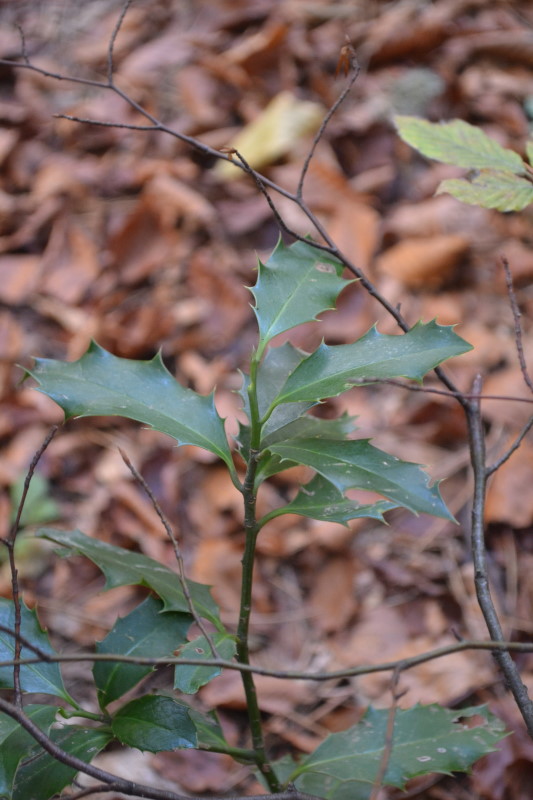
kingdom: Plantae
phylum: Tracheophyta
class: Magnoliopsida
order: Aquifoliales
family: Aquifoliaceae
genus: Ilex
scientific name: Ilex aquifolium
